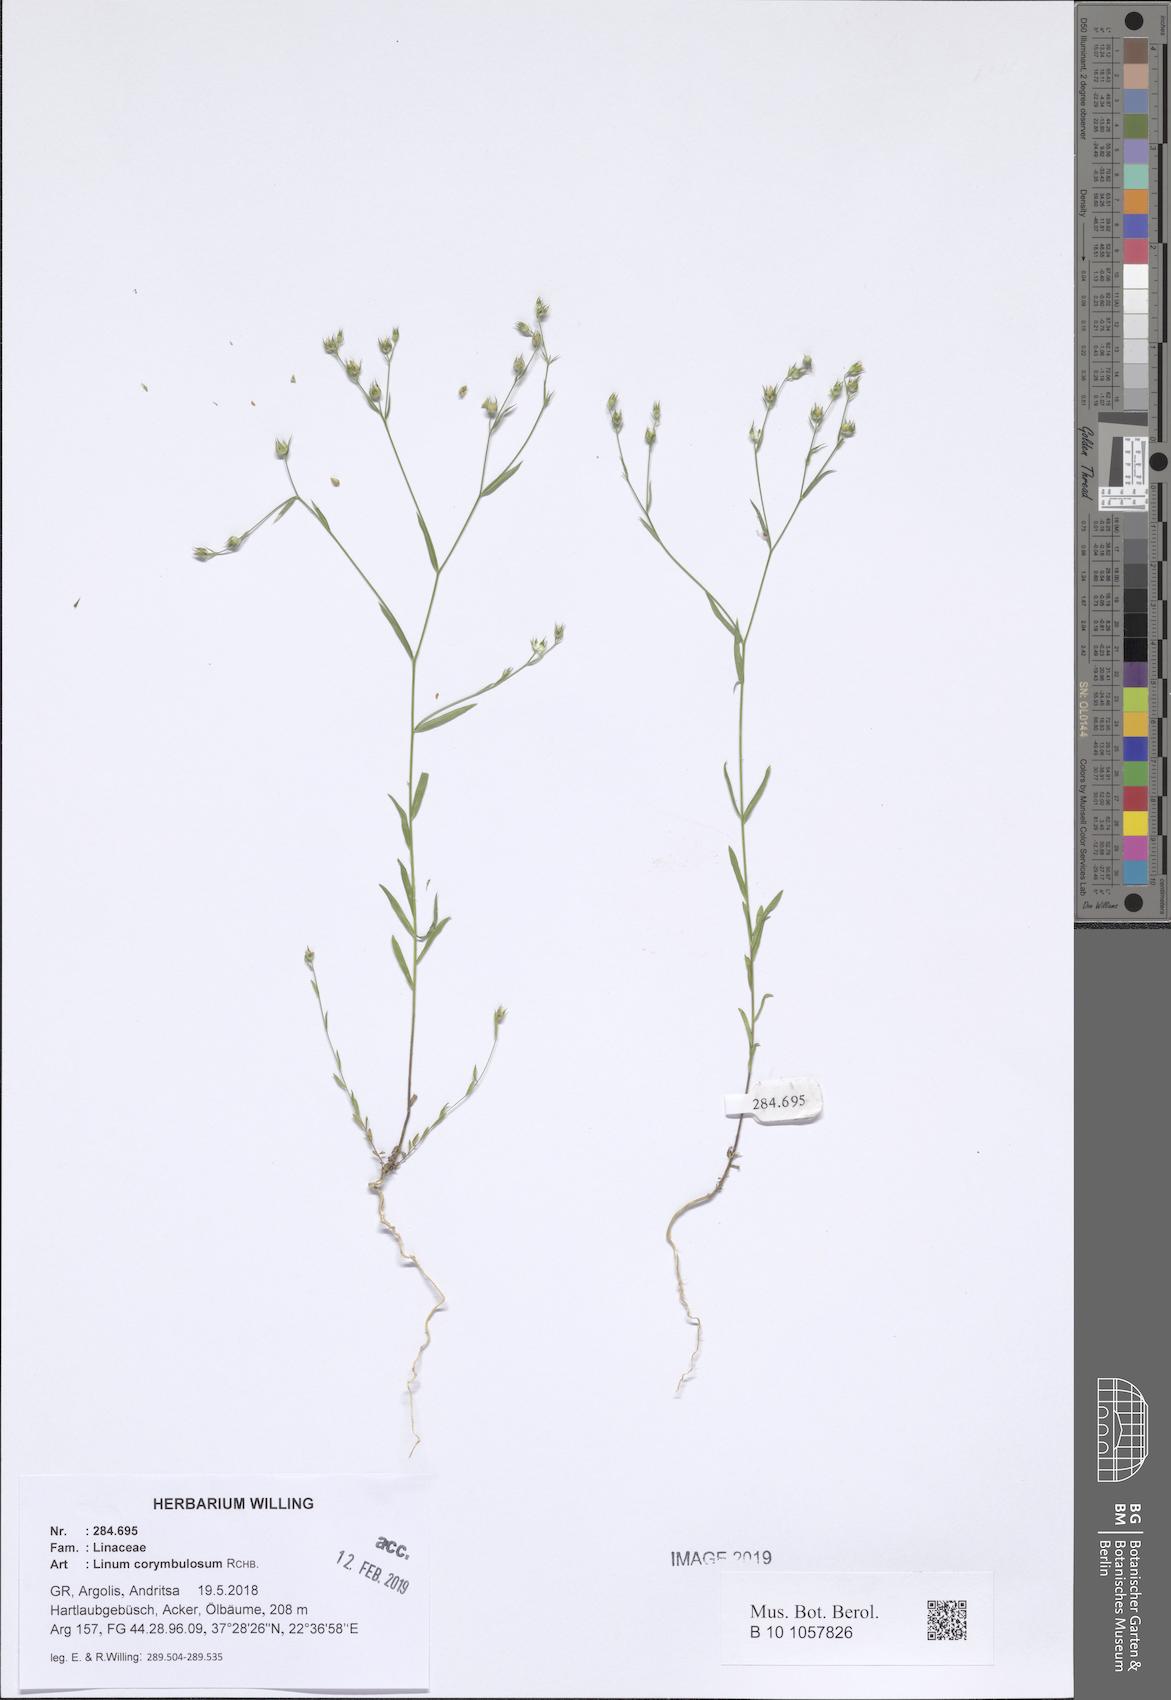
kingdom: Plantae
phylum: Tracheophyta
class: Magnoliopsida
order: Malpighiales
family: Linaceae
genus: Linum
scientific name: Linum corymbulosum
